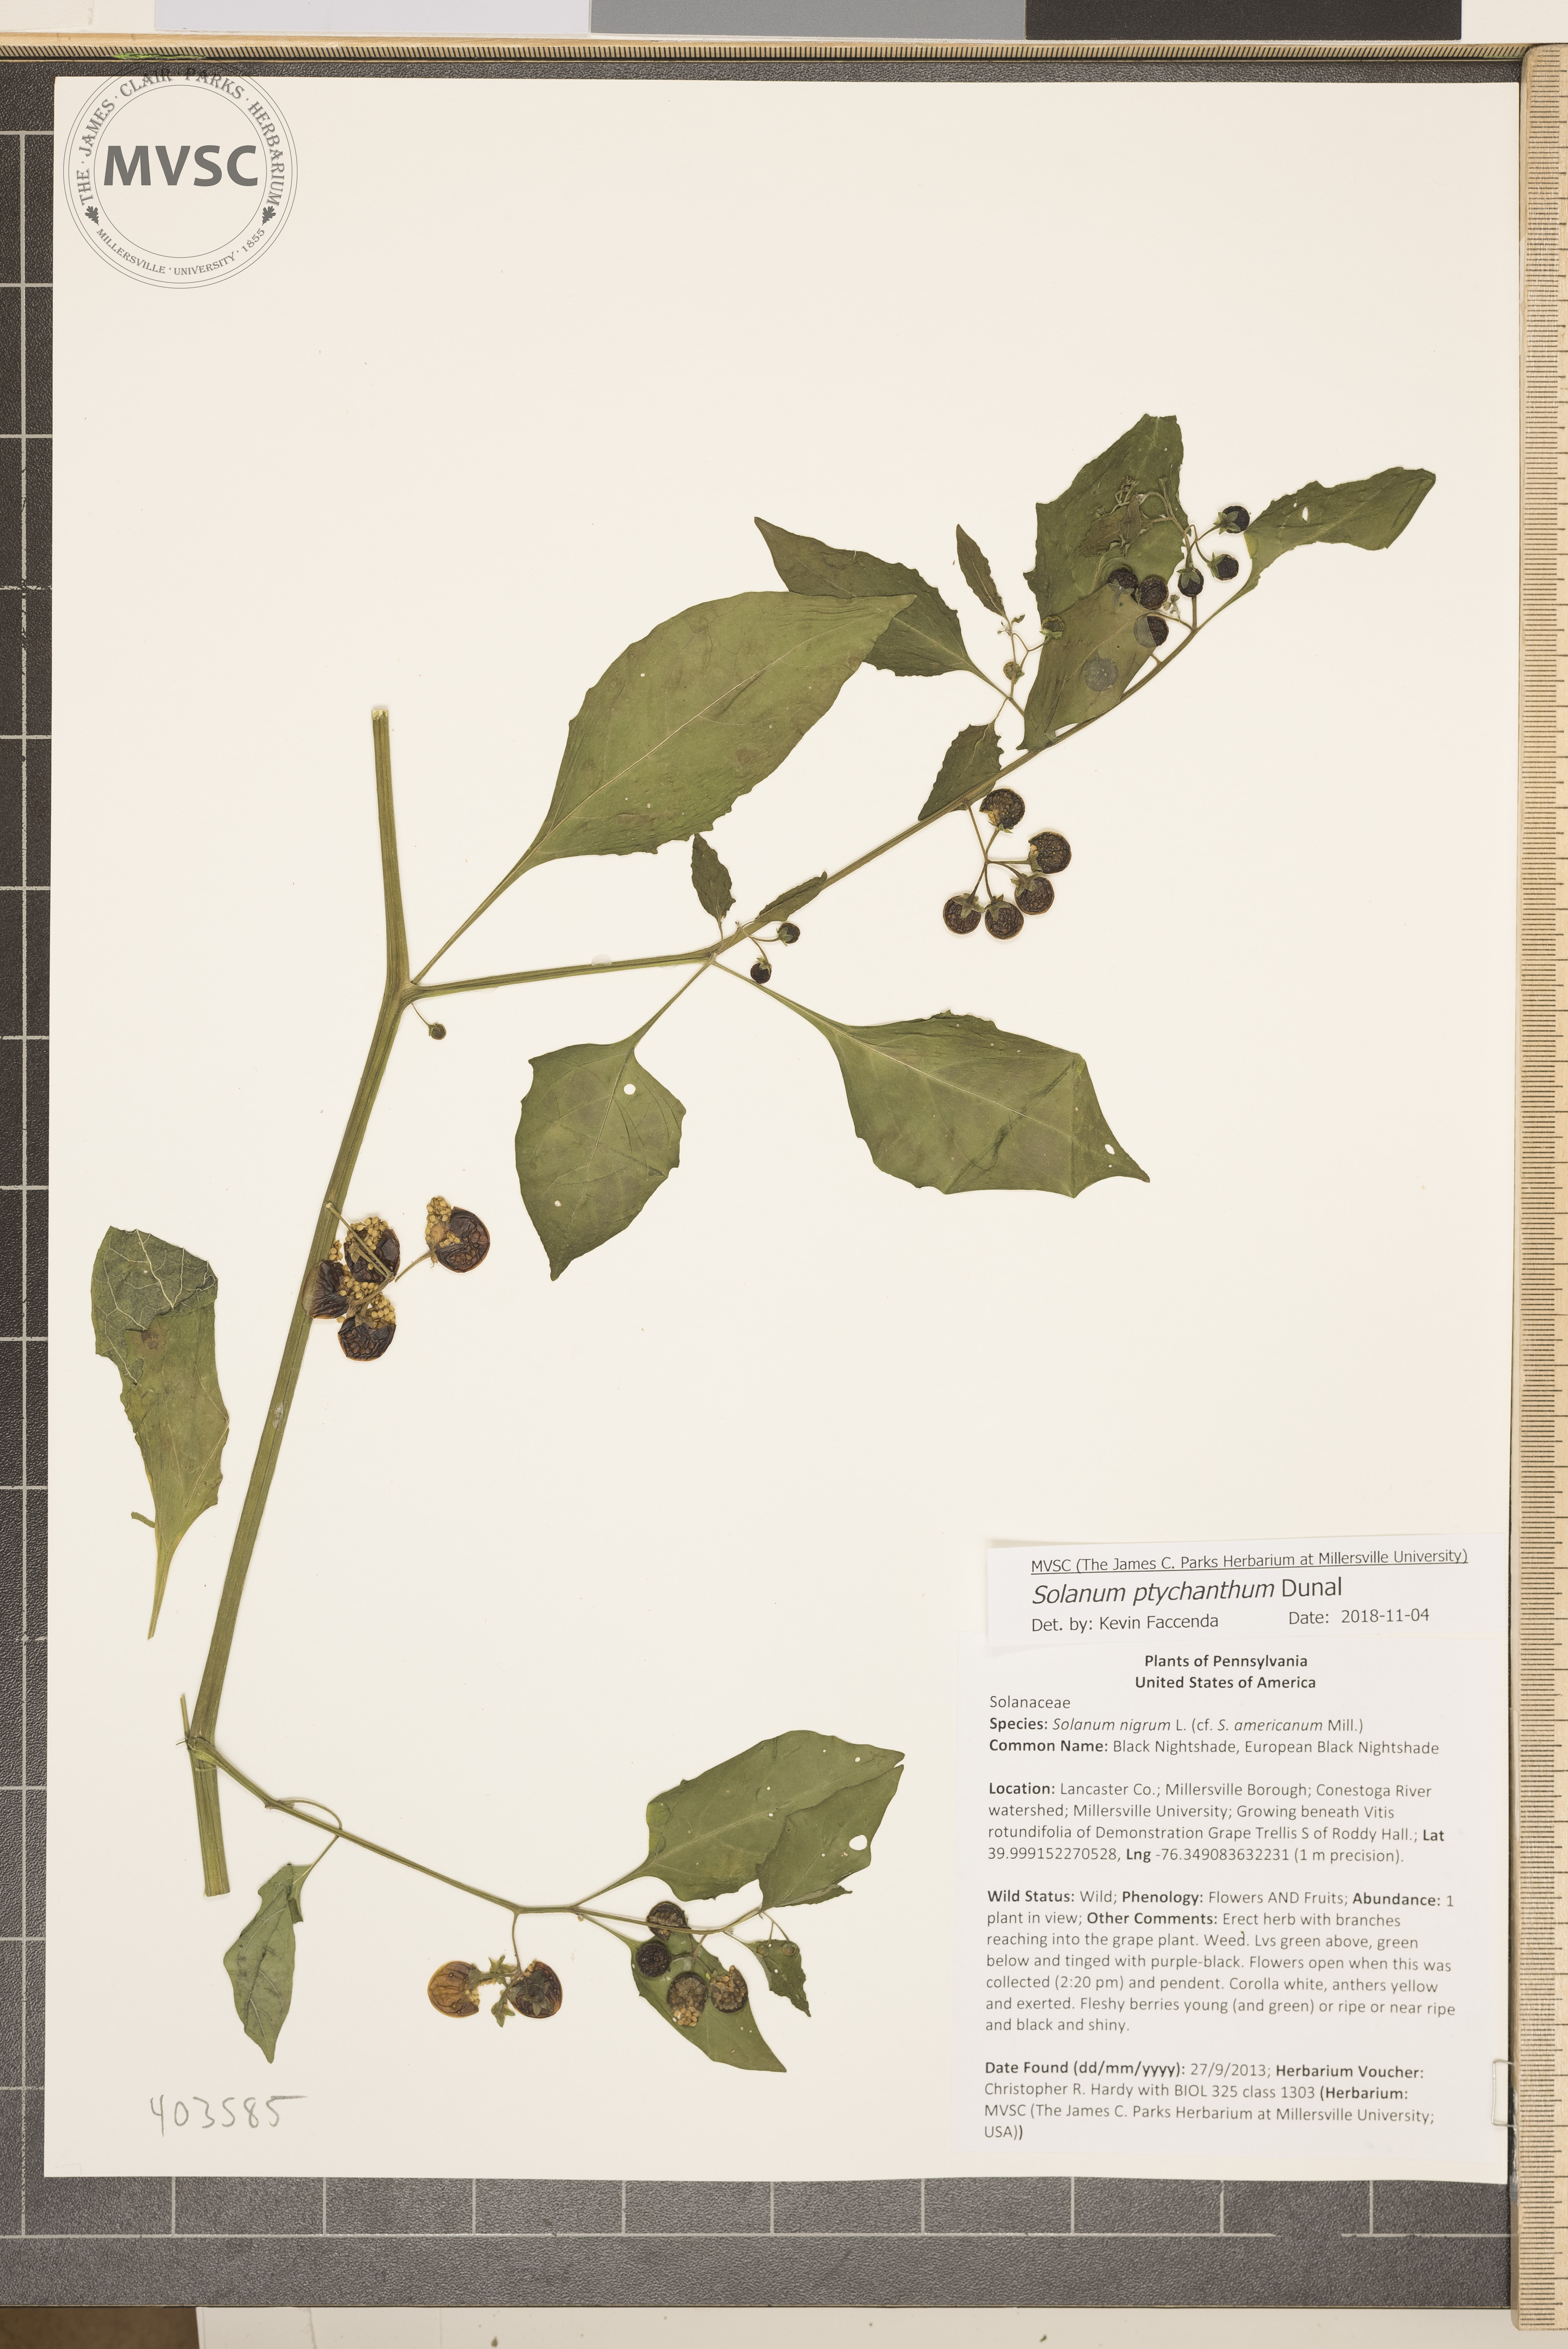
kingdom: Plantae
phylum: Tracheophyta
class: Magnoliopsida
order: Solanales
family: Solanaceae
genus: Solanum
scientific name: Solanum americanum
